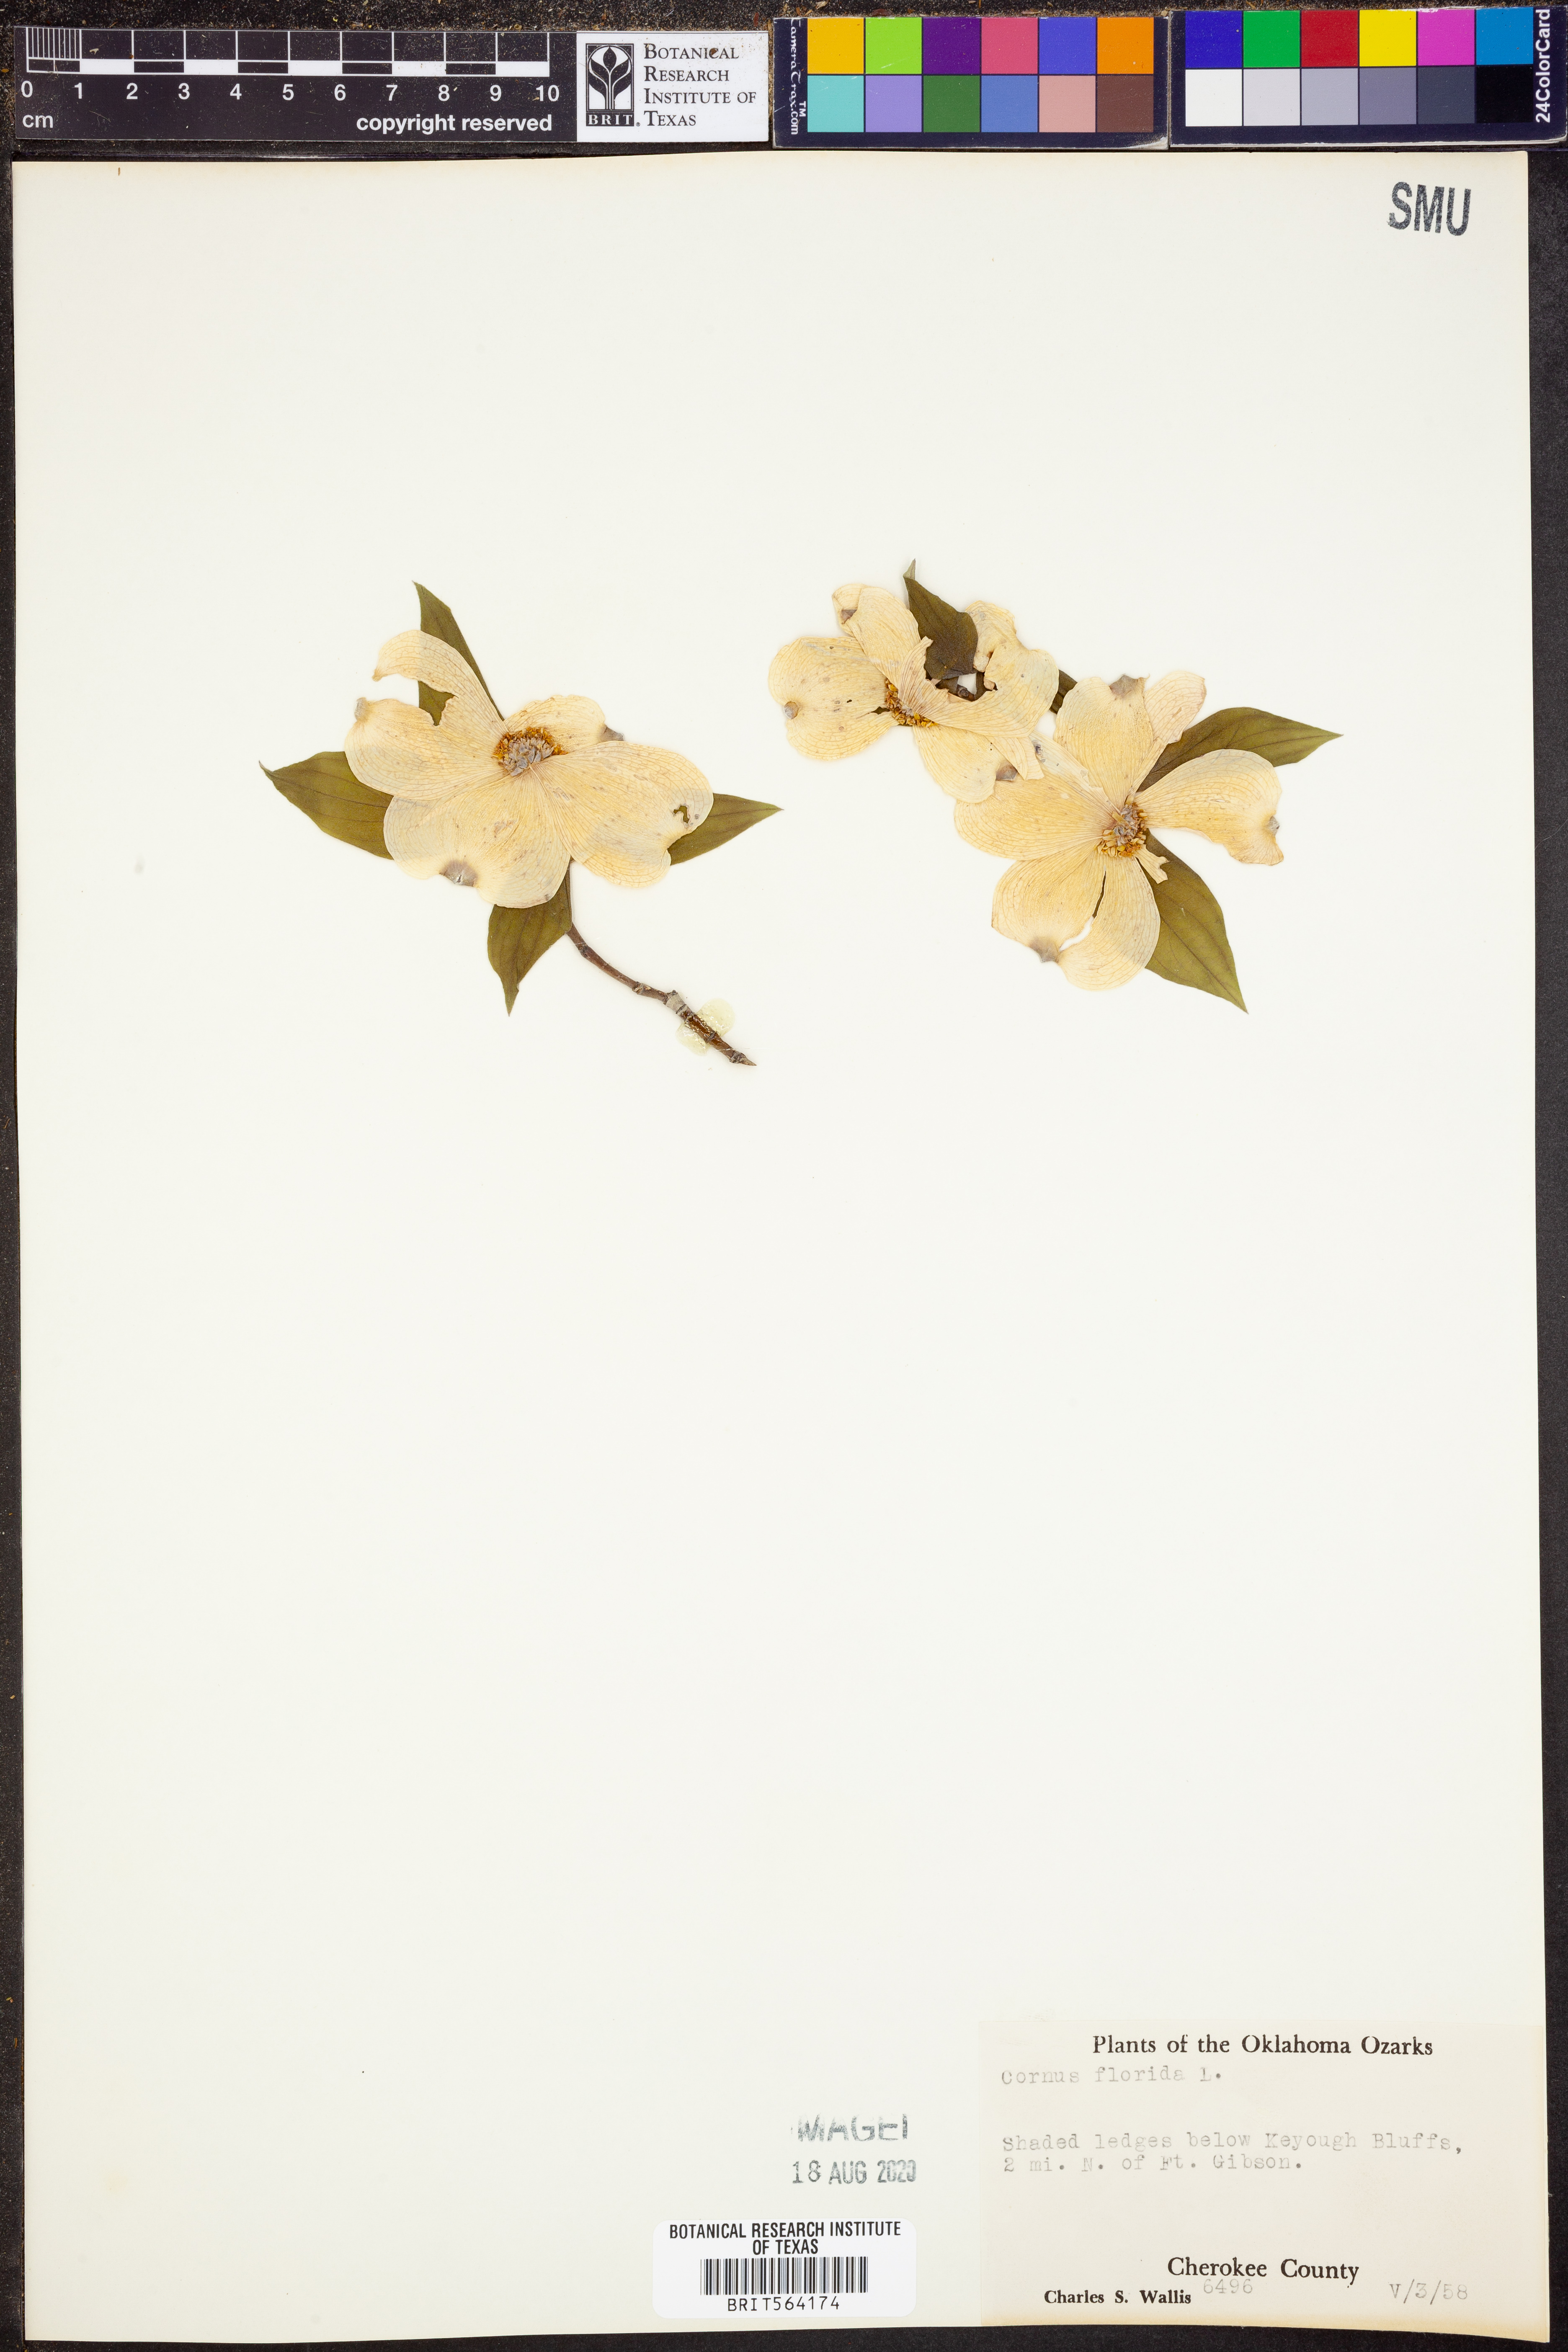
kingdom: Plantae
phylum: Tracheophyta
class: Magnoliopsida
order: Cornales
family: Cornaceae
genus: Cornus
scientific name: Cornus florida
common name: Flowering dogwood
